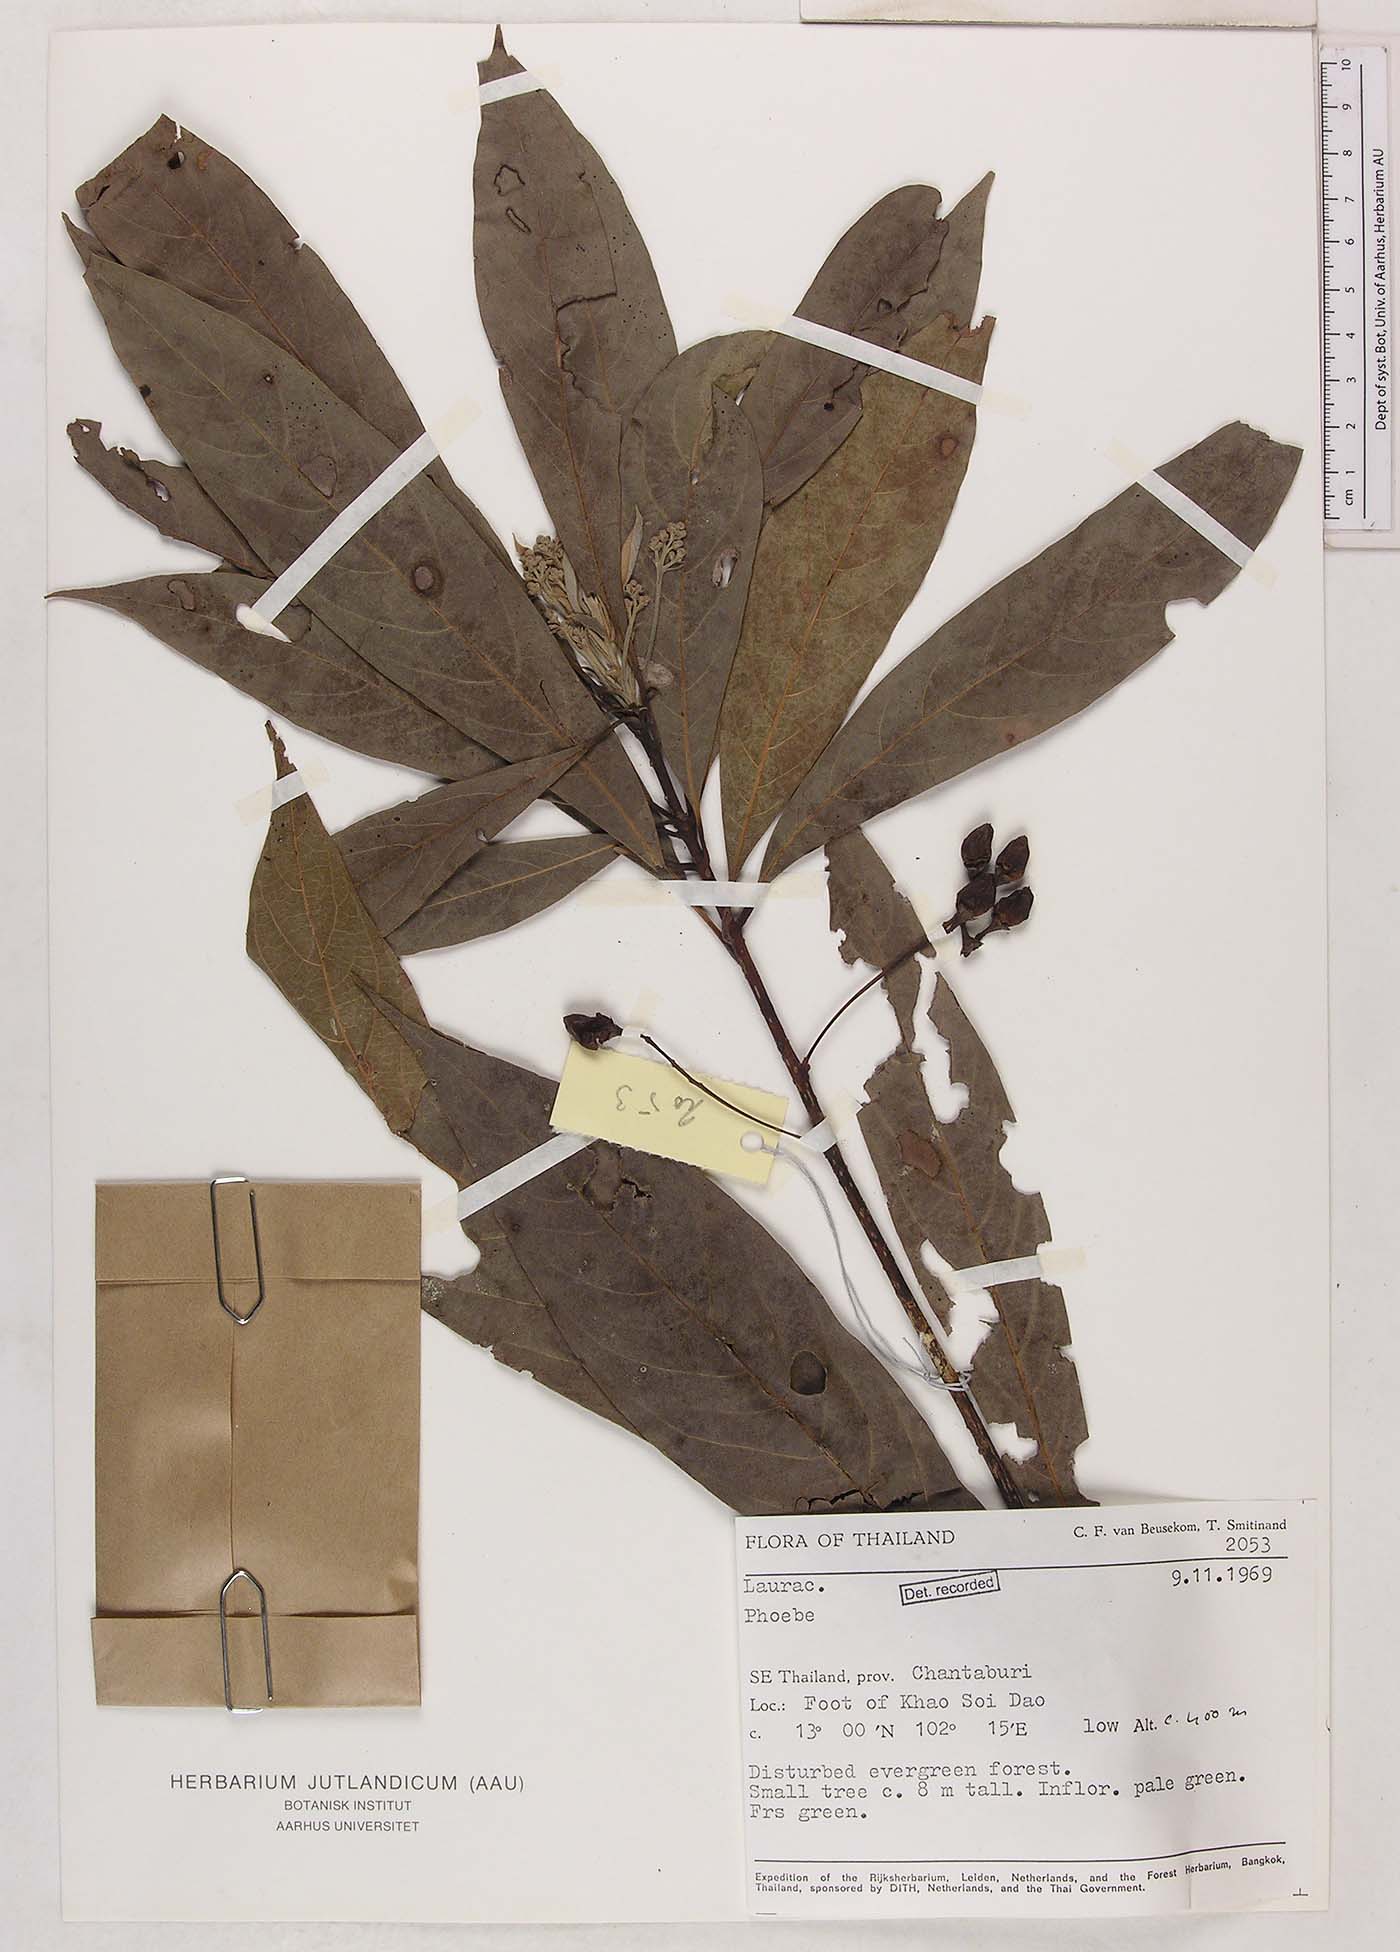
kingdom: Plantae
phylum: Tracheophyta
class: Magnoliopsida
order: Laurales
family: Lauraceae
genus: Phoebe
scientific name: Phoebe
